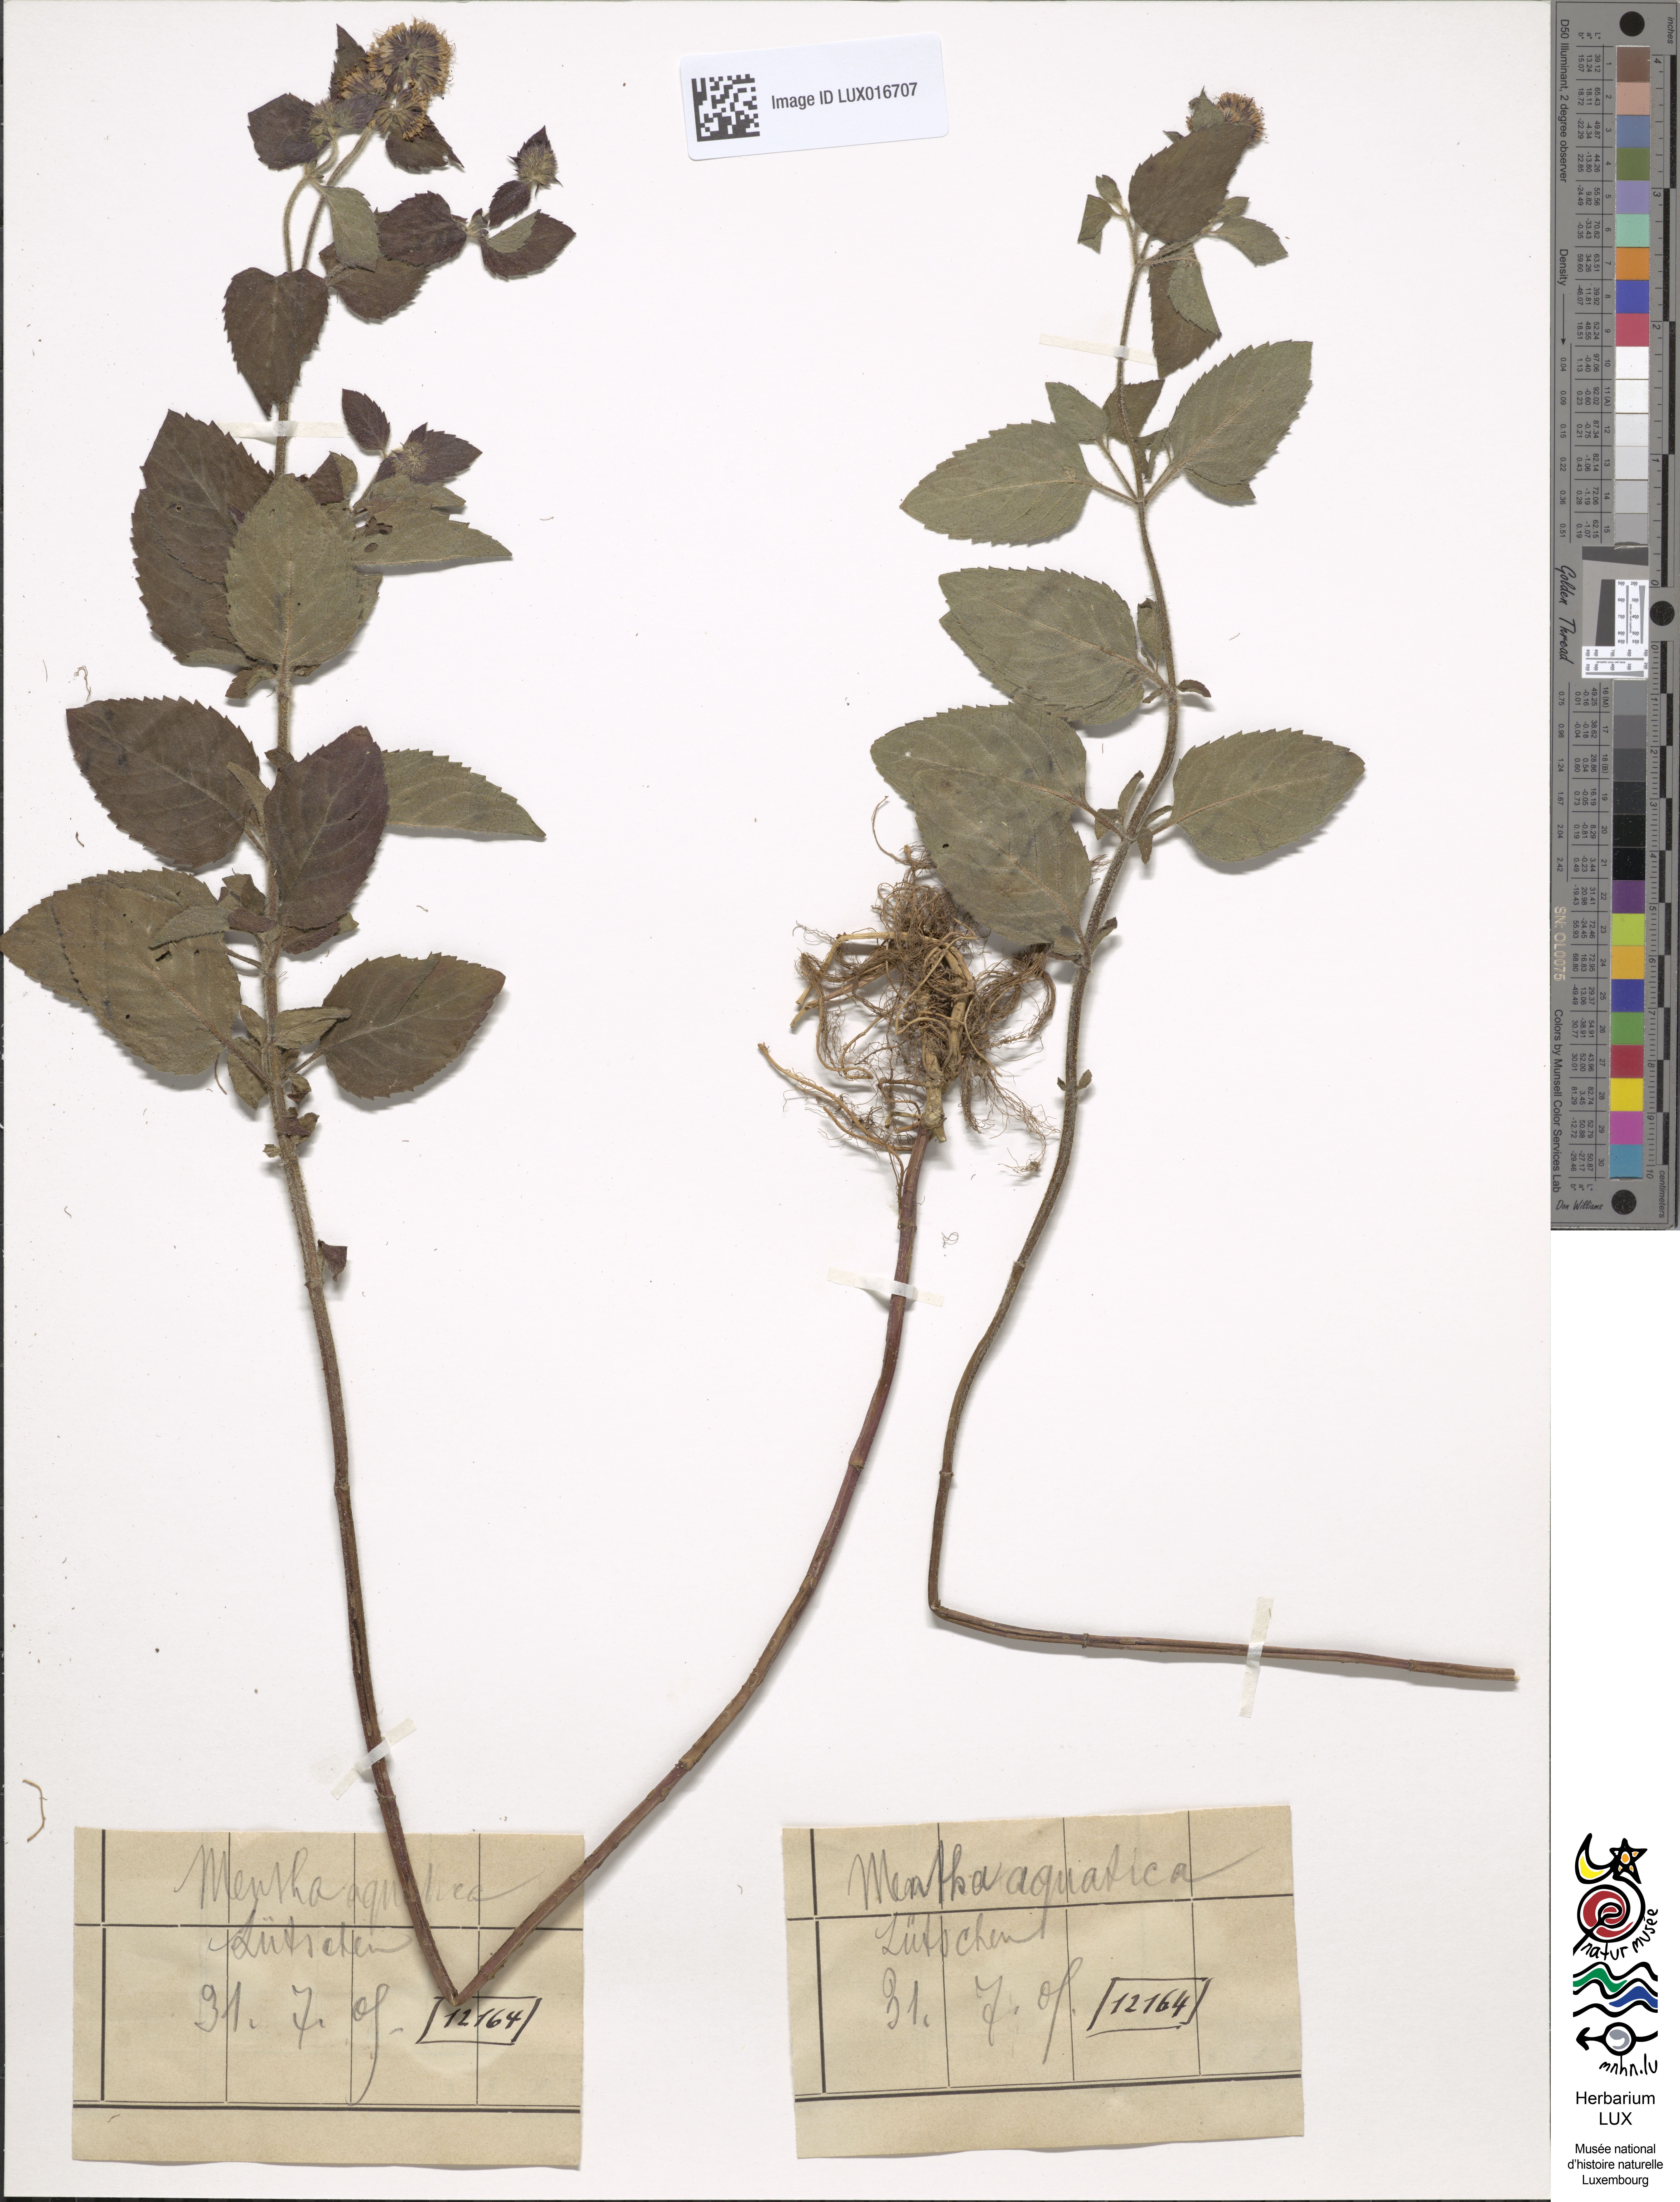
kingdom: Plantae
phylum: Tracheophyta
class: Magnoliopsida
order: Lamiales
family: Lamiaceae
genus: Mentha
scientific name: Mentha aquatica
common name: Water mint
